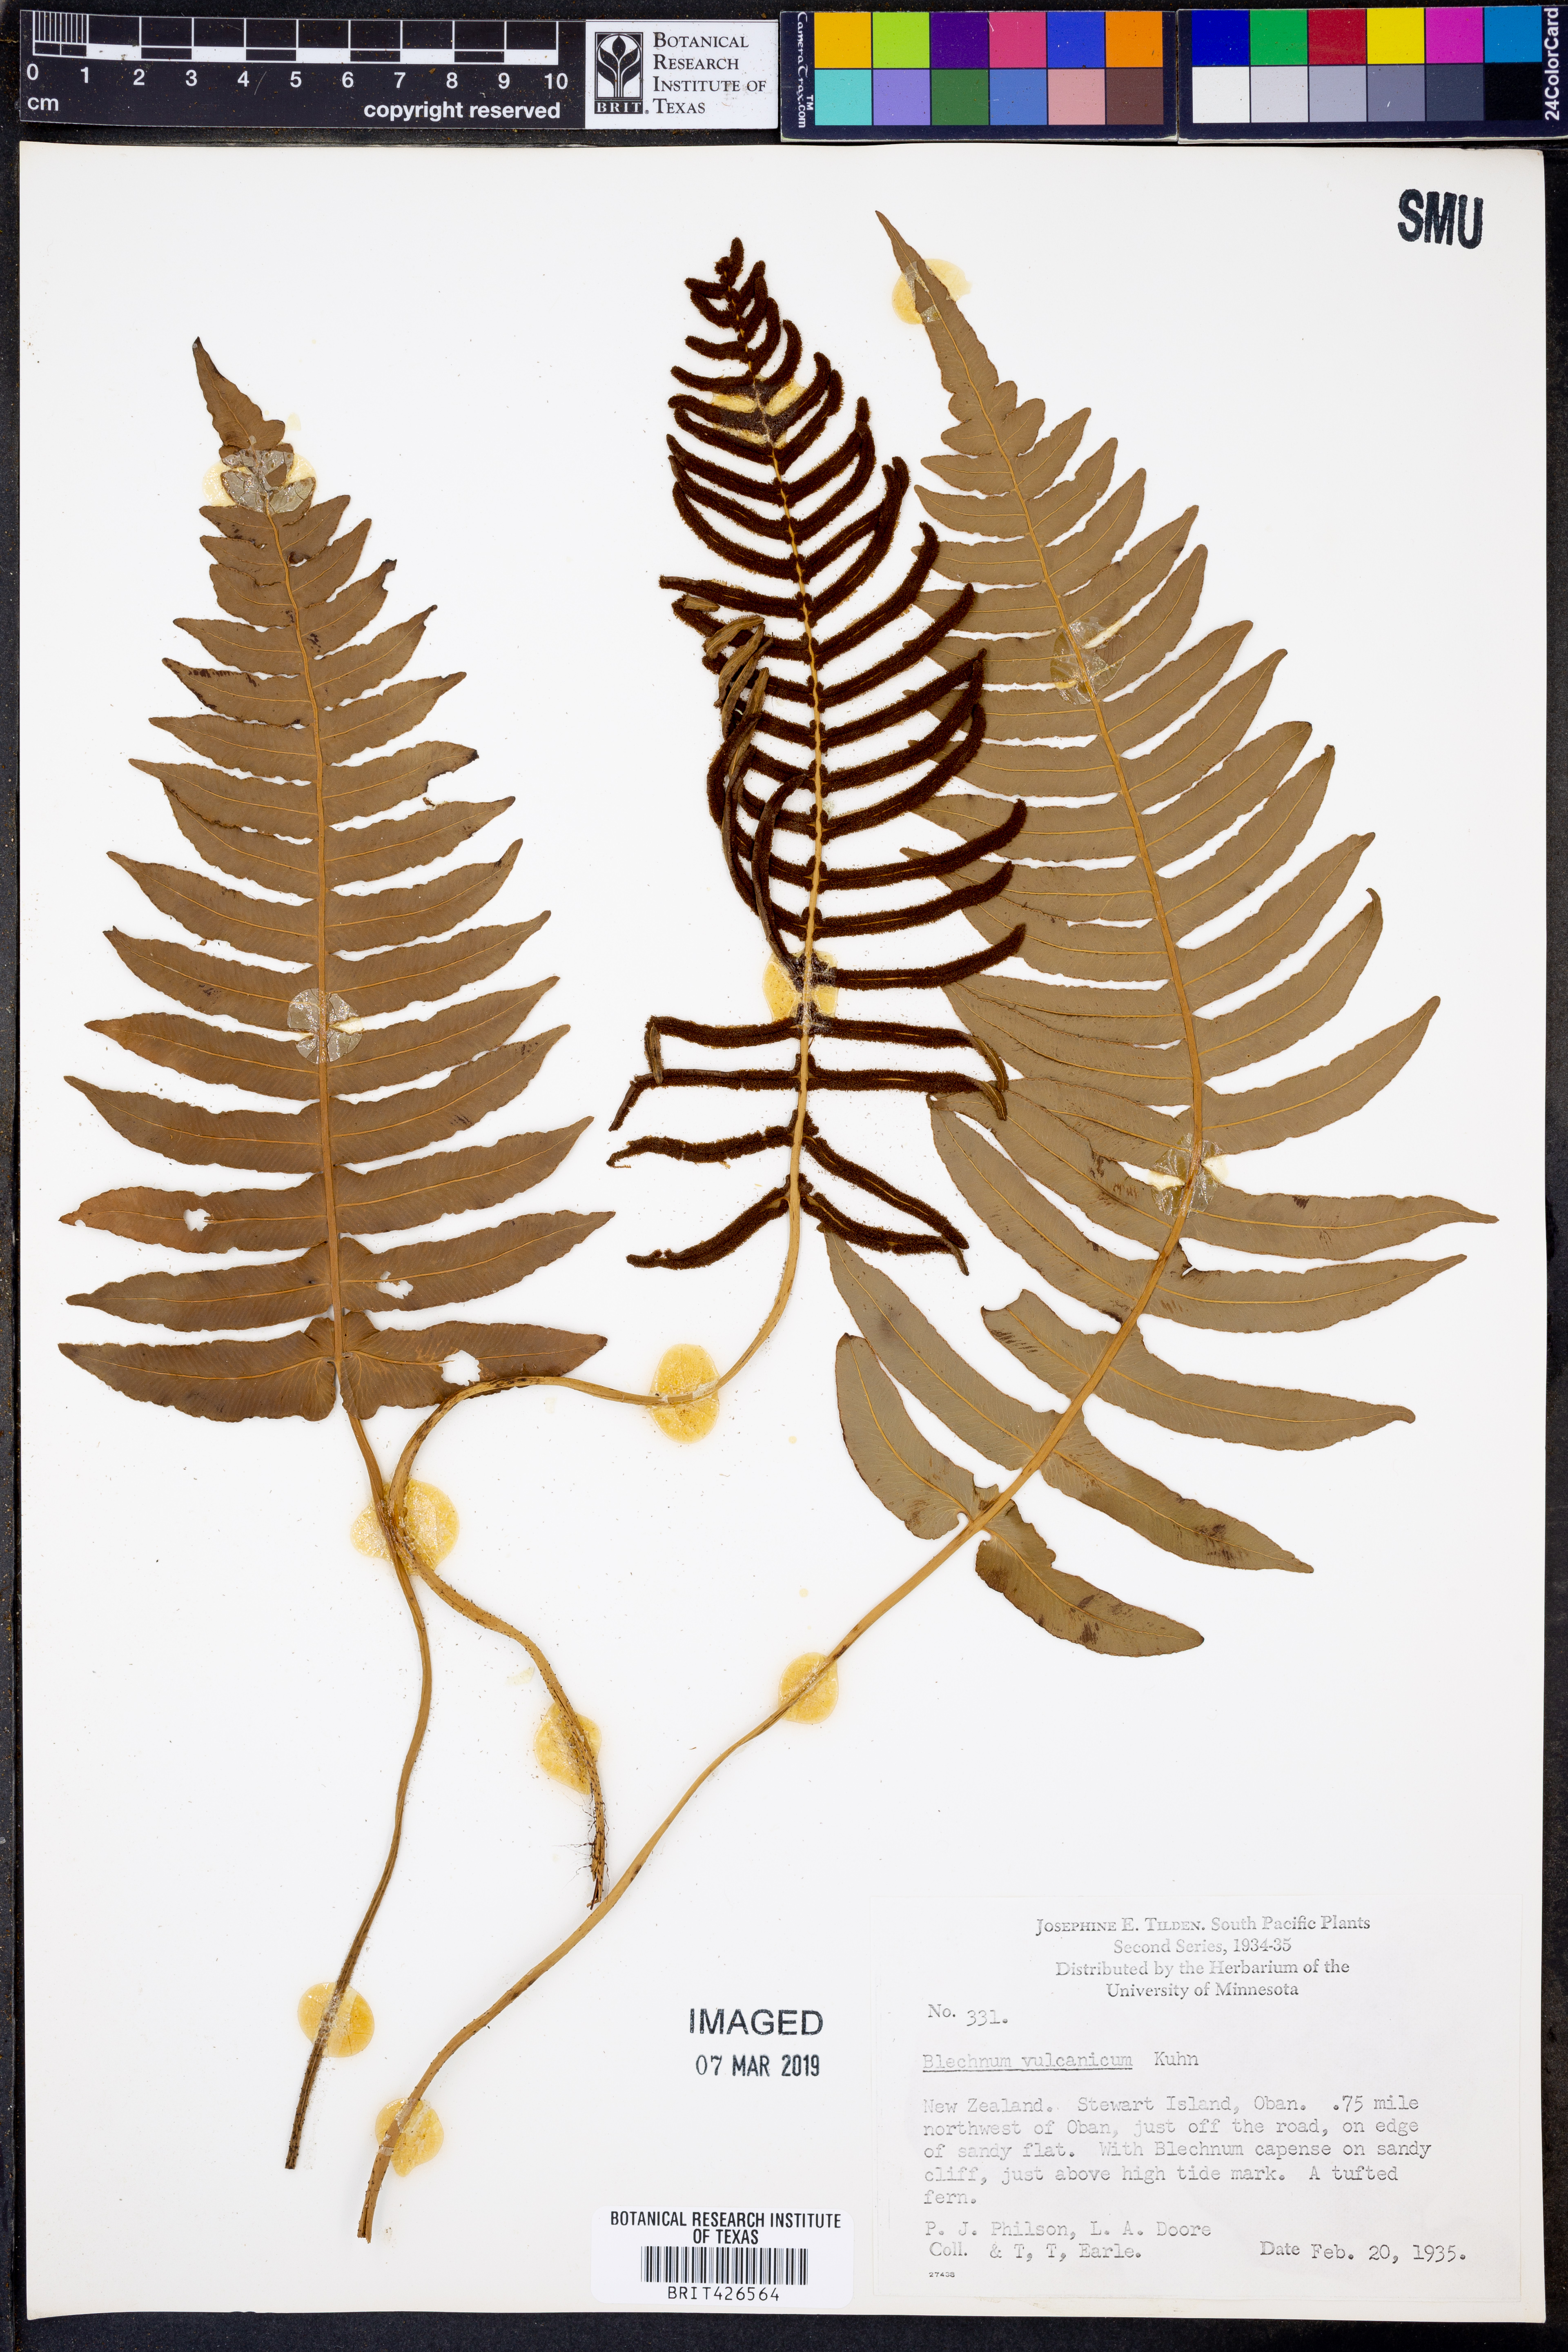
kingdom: Plantae
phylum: Tracheophyta
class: Polypodiopsida
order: Polypodiales
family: Blechnaceae
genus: Cranfillia
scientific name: Cranfillia vulcanica
